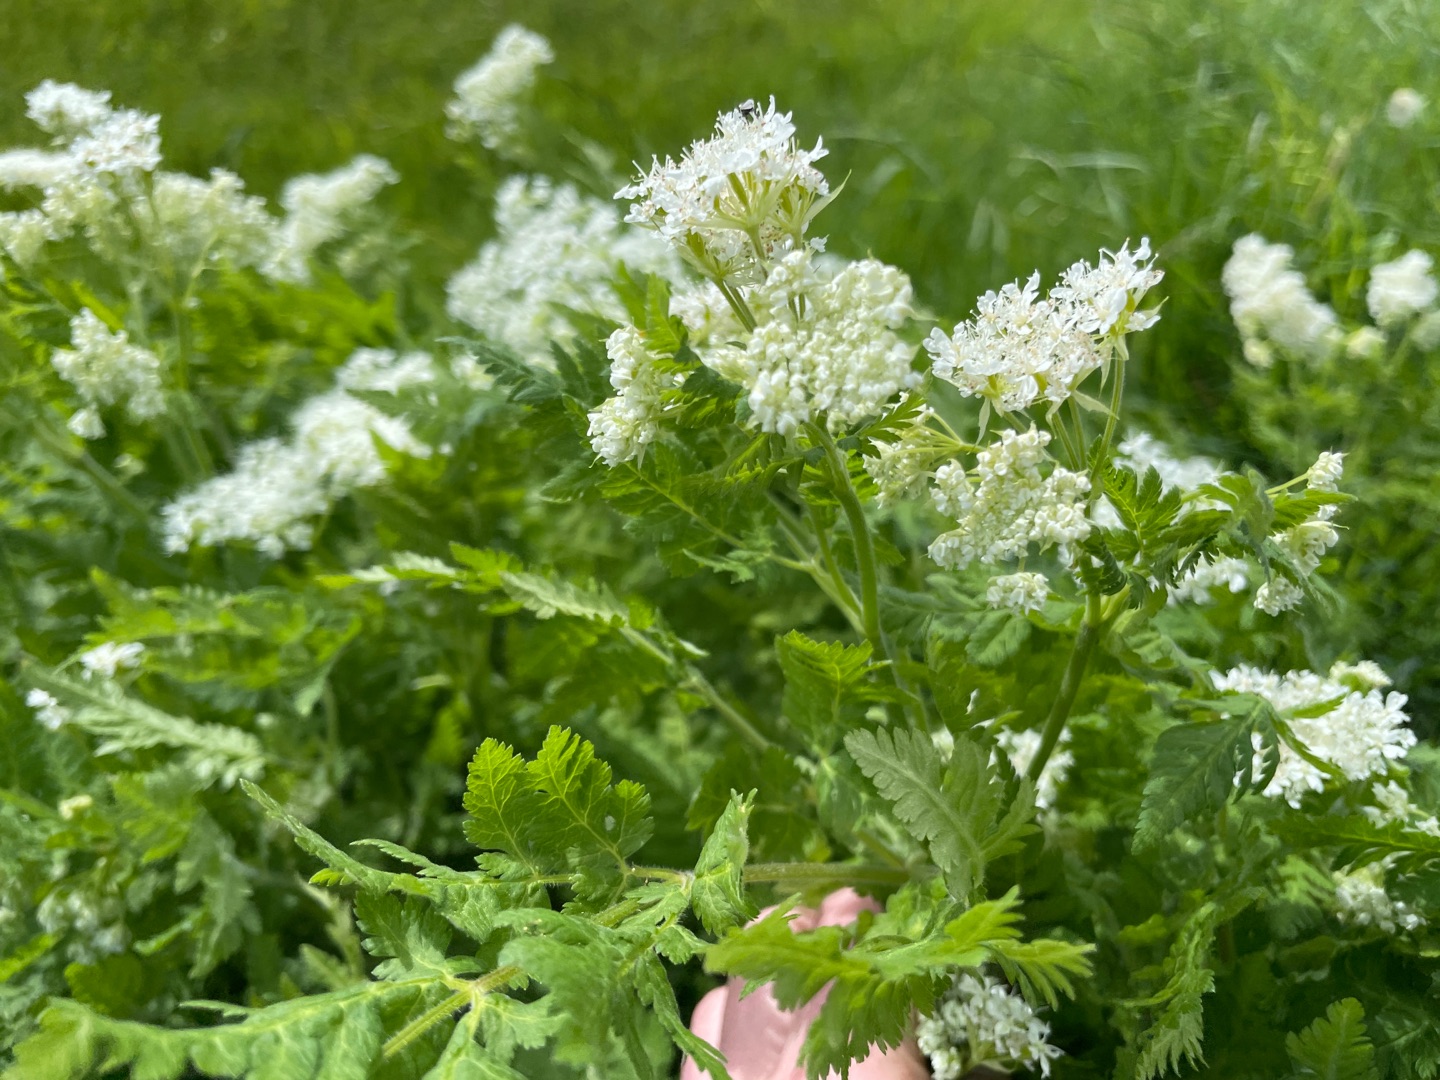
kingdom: Plantae
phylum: Tracheophyta
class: Magnoliopsida
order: Apiales
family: Apiaceae
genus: Myrrhis
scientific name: Myrrhis odorata
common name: Sødskærm
